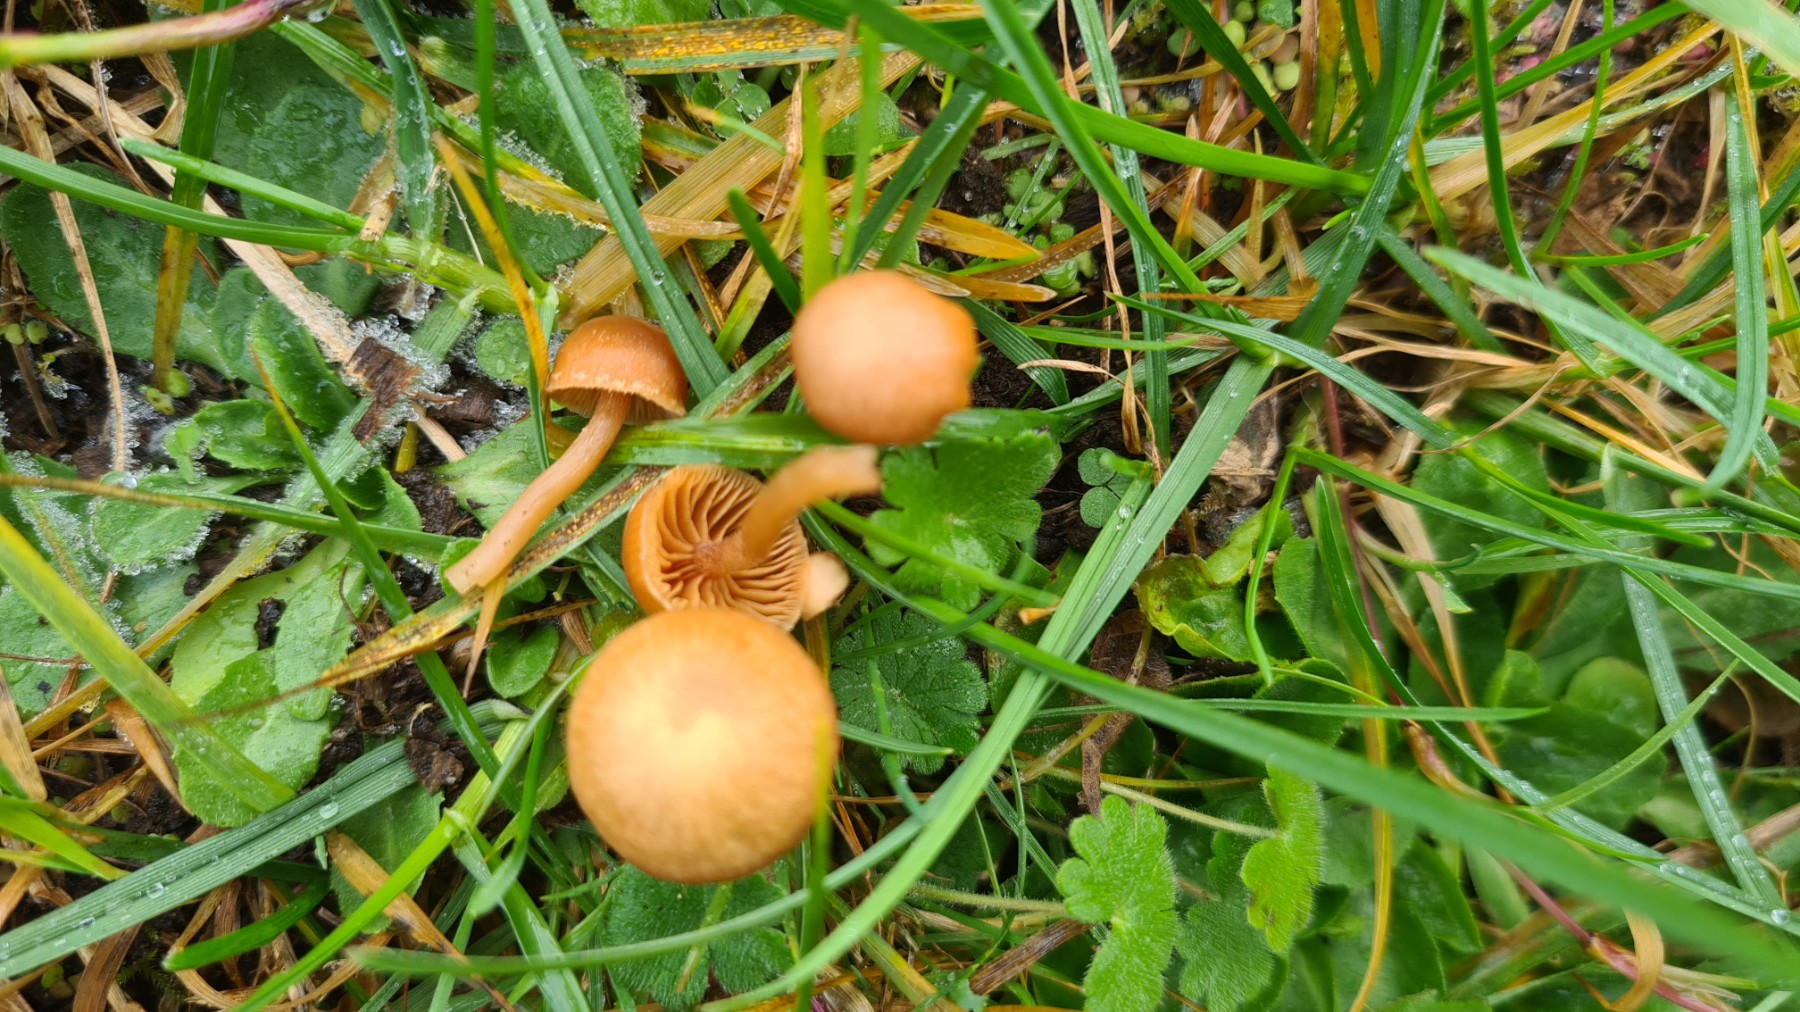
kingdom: Fungi
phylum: Basidiomycota
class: Agaricomycetes
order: Agaricales
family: Tubariaceae
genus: Tubaria
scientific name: Tubaria furfuracea
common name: kliddet fnughat
